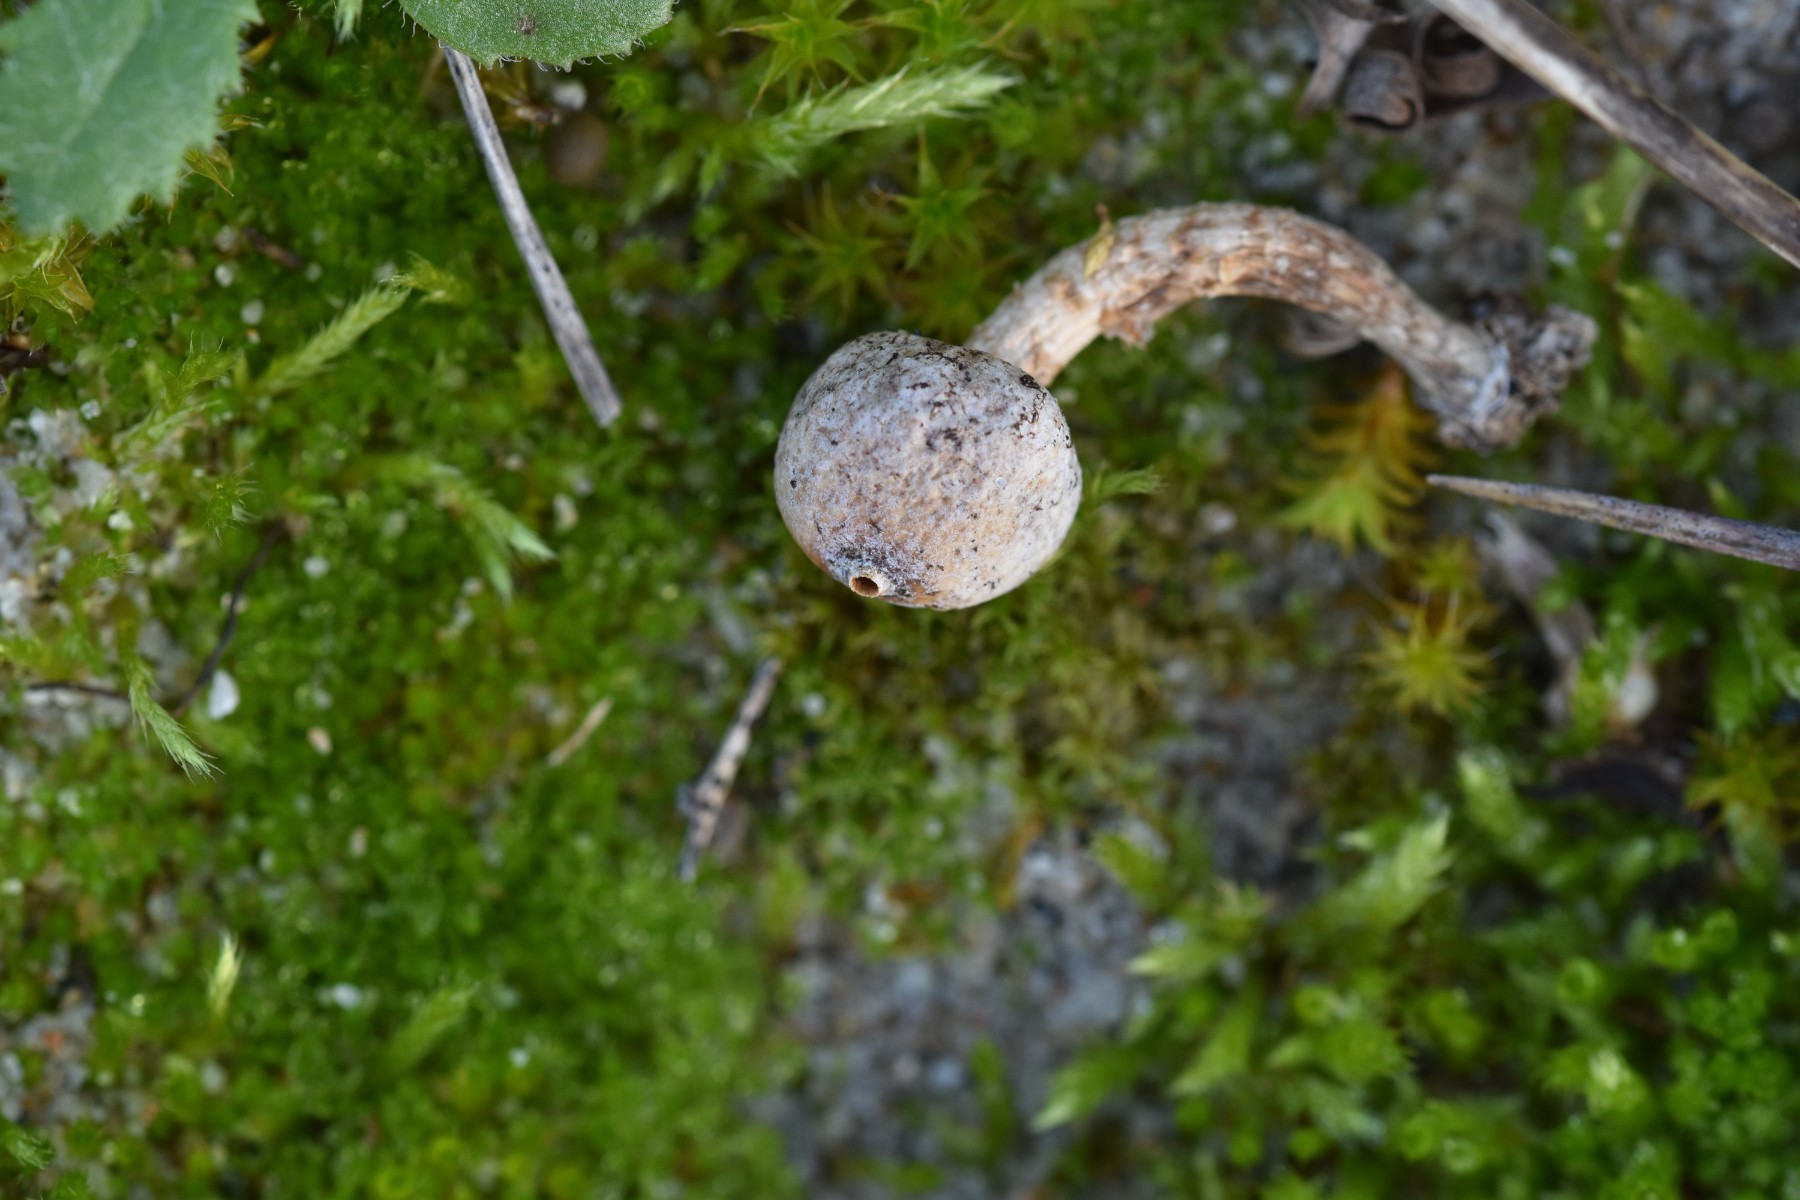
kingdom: Fungi
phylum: Basidiomycota
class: Agaricomycetes
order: Agaricales
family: Agaricaceae
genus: Tulostoma
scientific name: Tulostoma brumale
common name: vinter-stilkbovist
